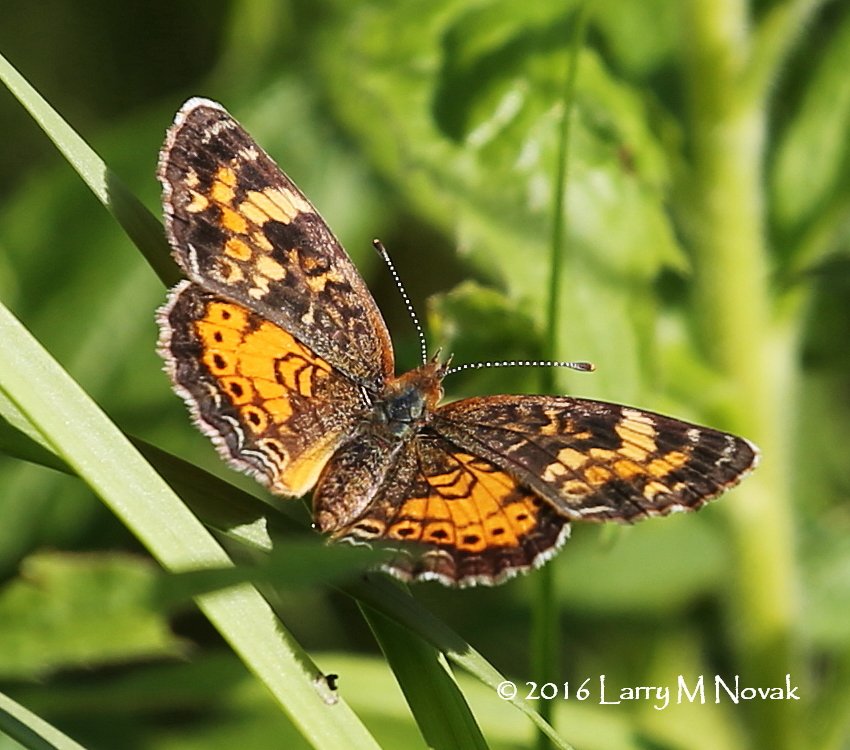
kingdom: Animalia
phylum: Arthropoda
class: Insecta
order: Lepidoptera
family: Nymphalidae
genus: Phyciodes
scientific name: Phyciodes tharos
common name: Northern Crescent
